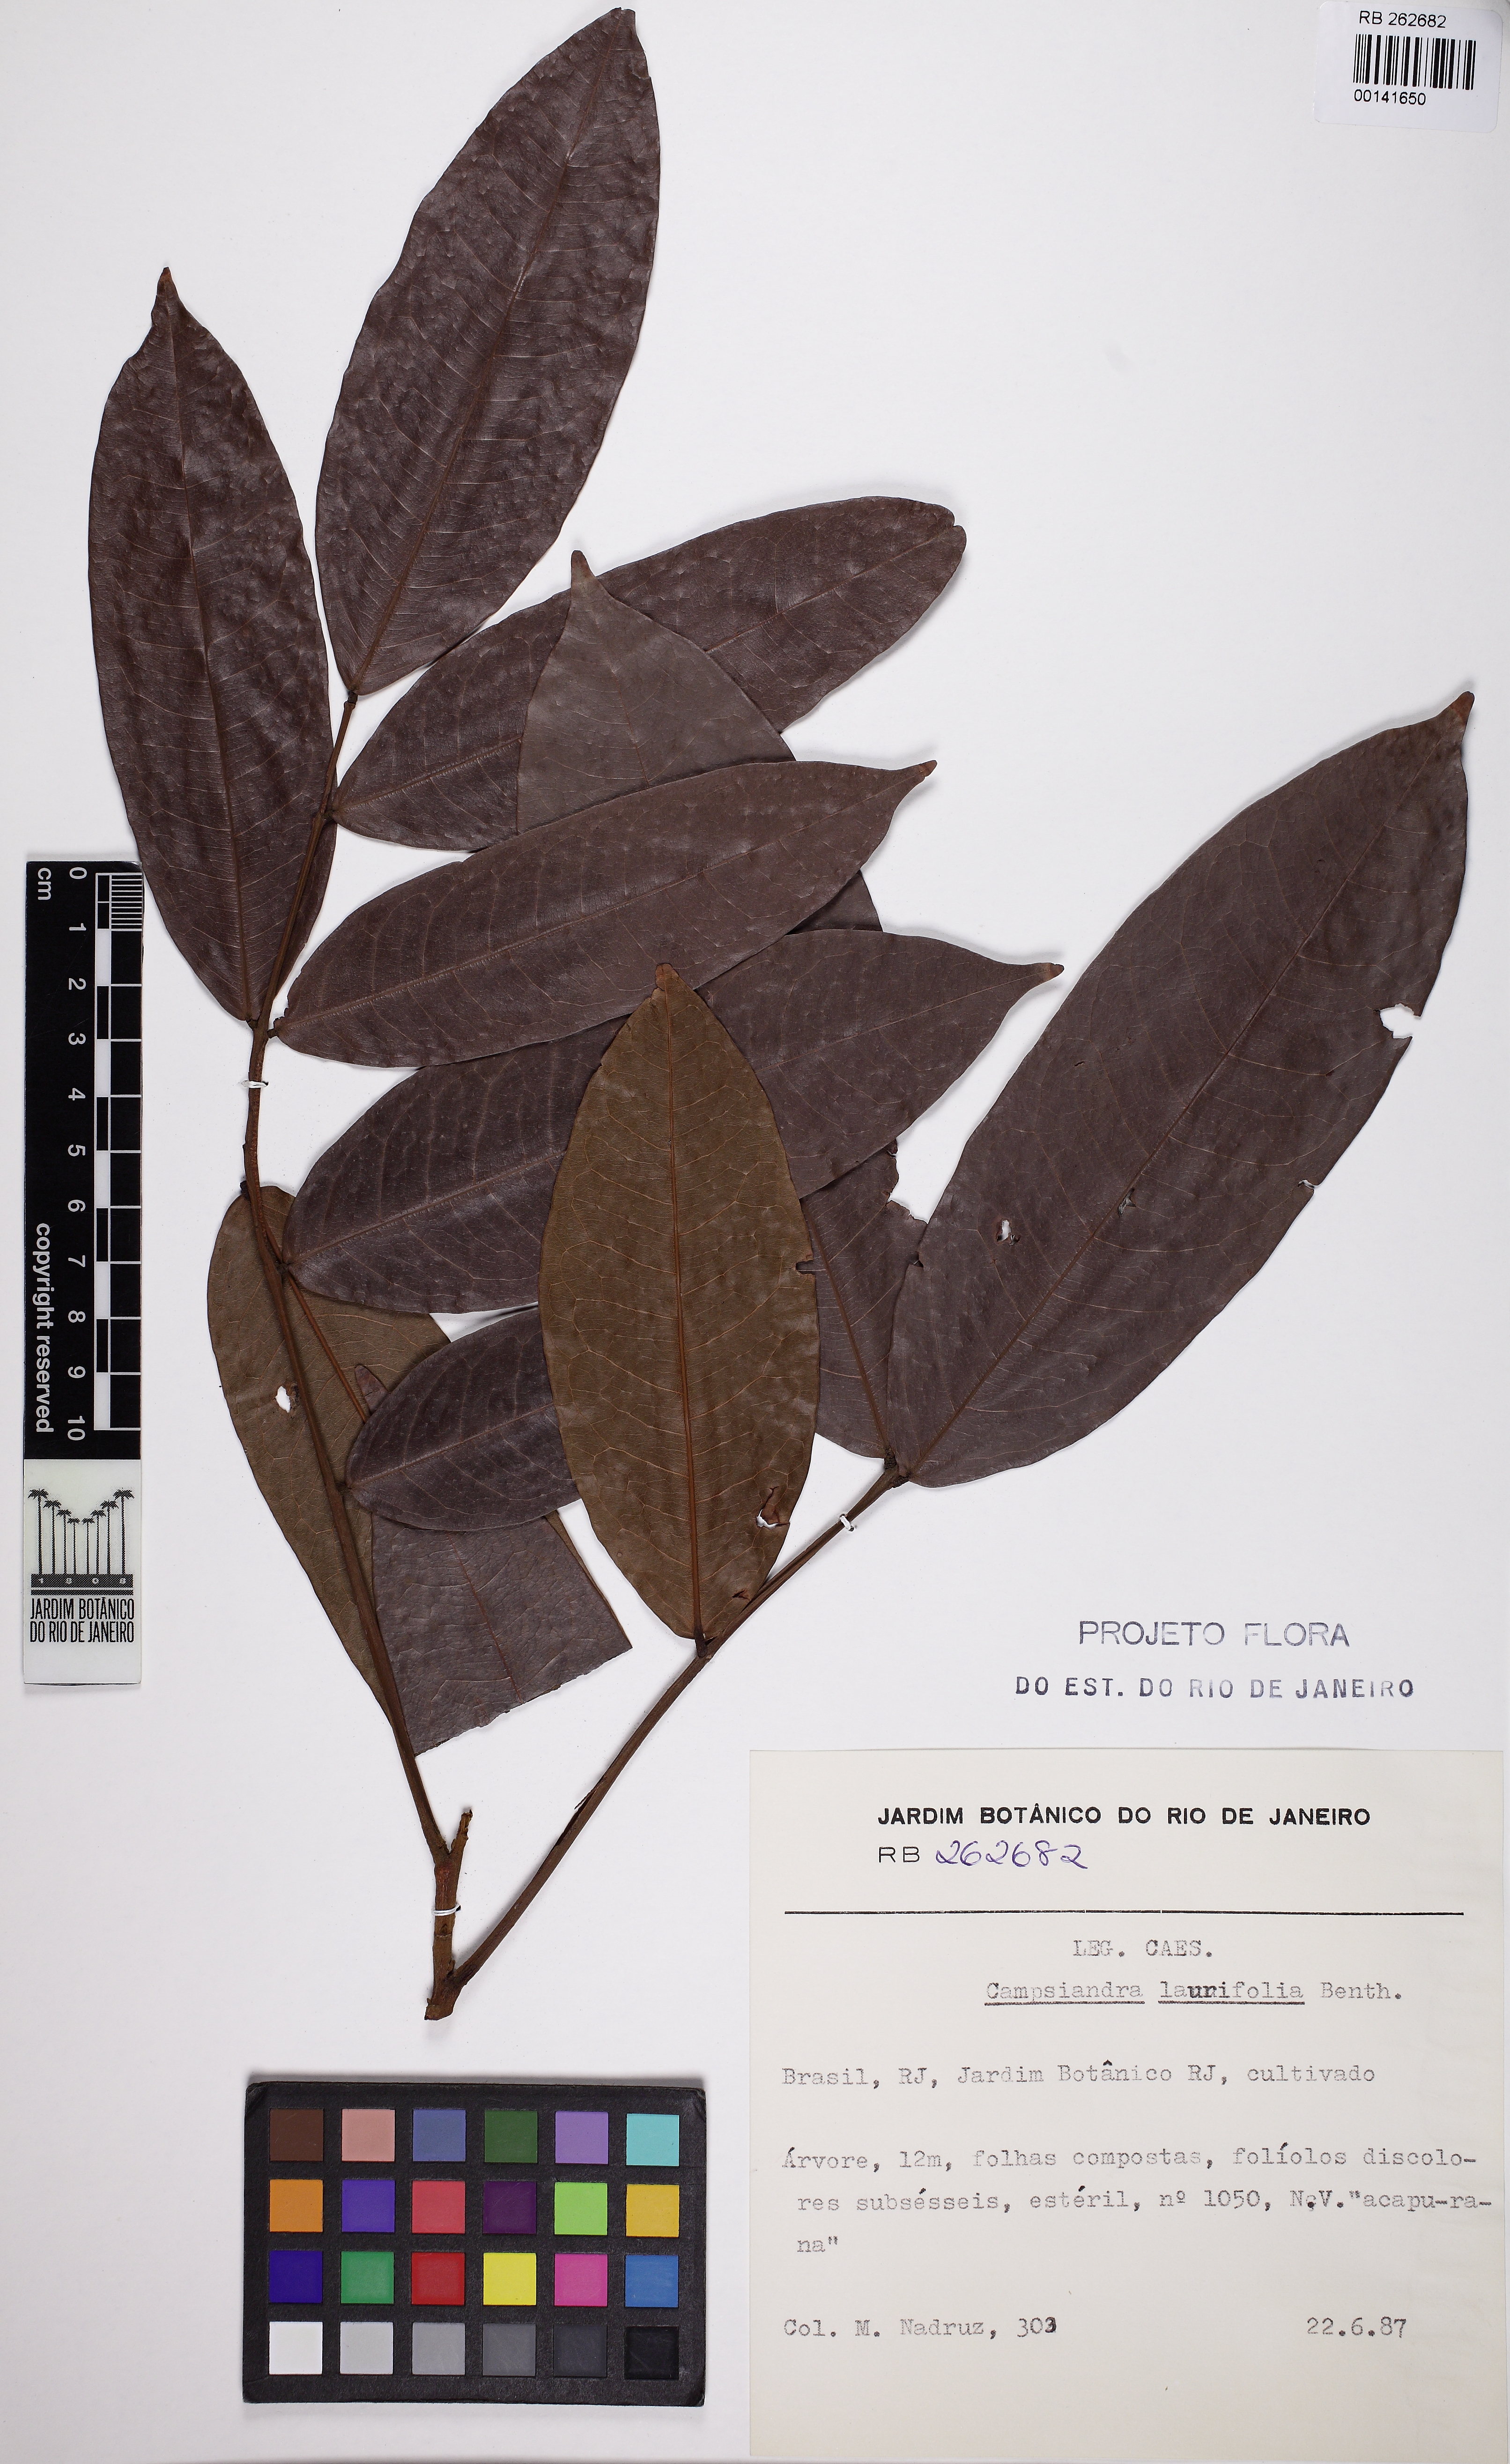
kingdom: Plantae
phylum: Tracheophyta
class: Magnoliopsida
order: Fabales
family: Fabaceae
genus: Campsiandra
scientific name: Campsiandra laurifolia
